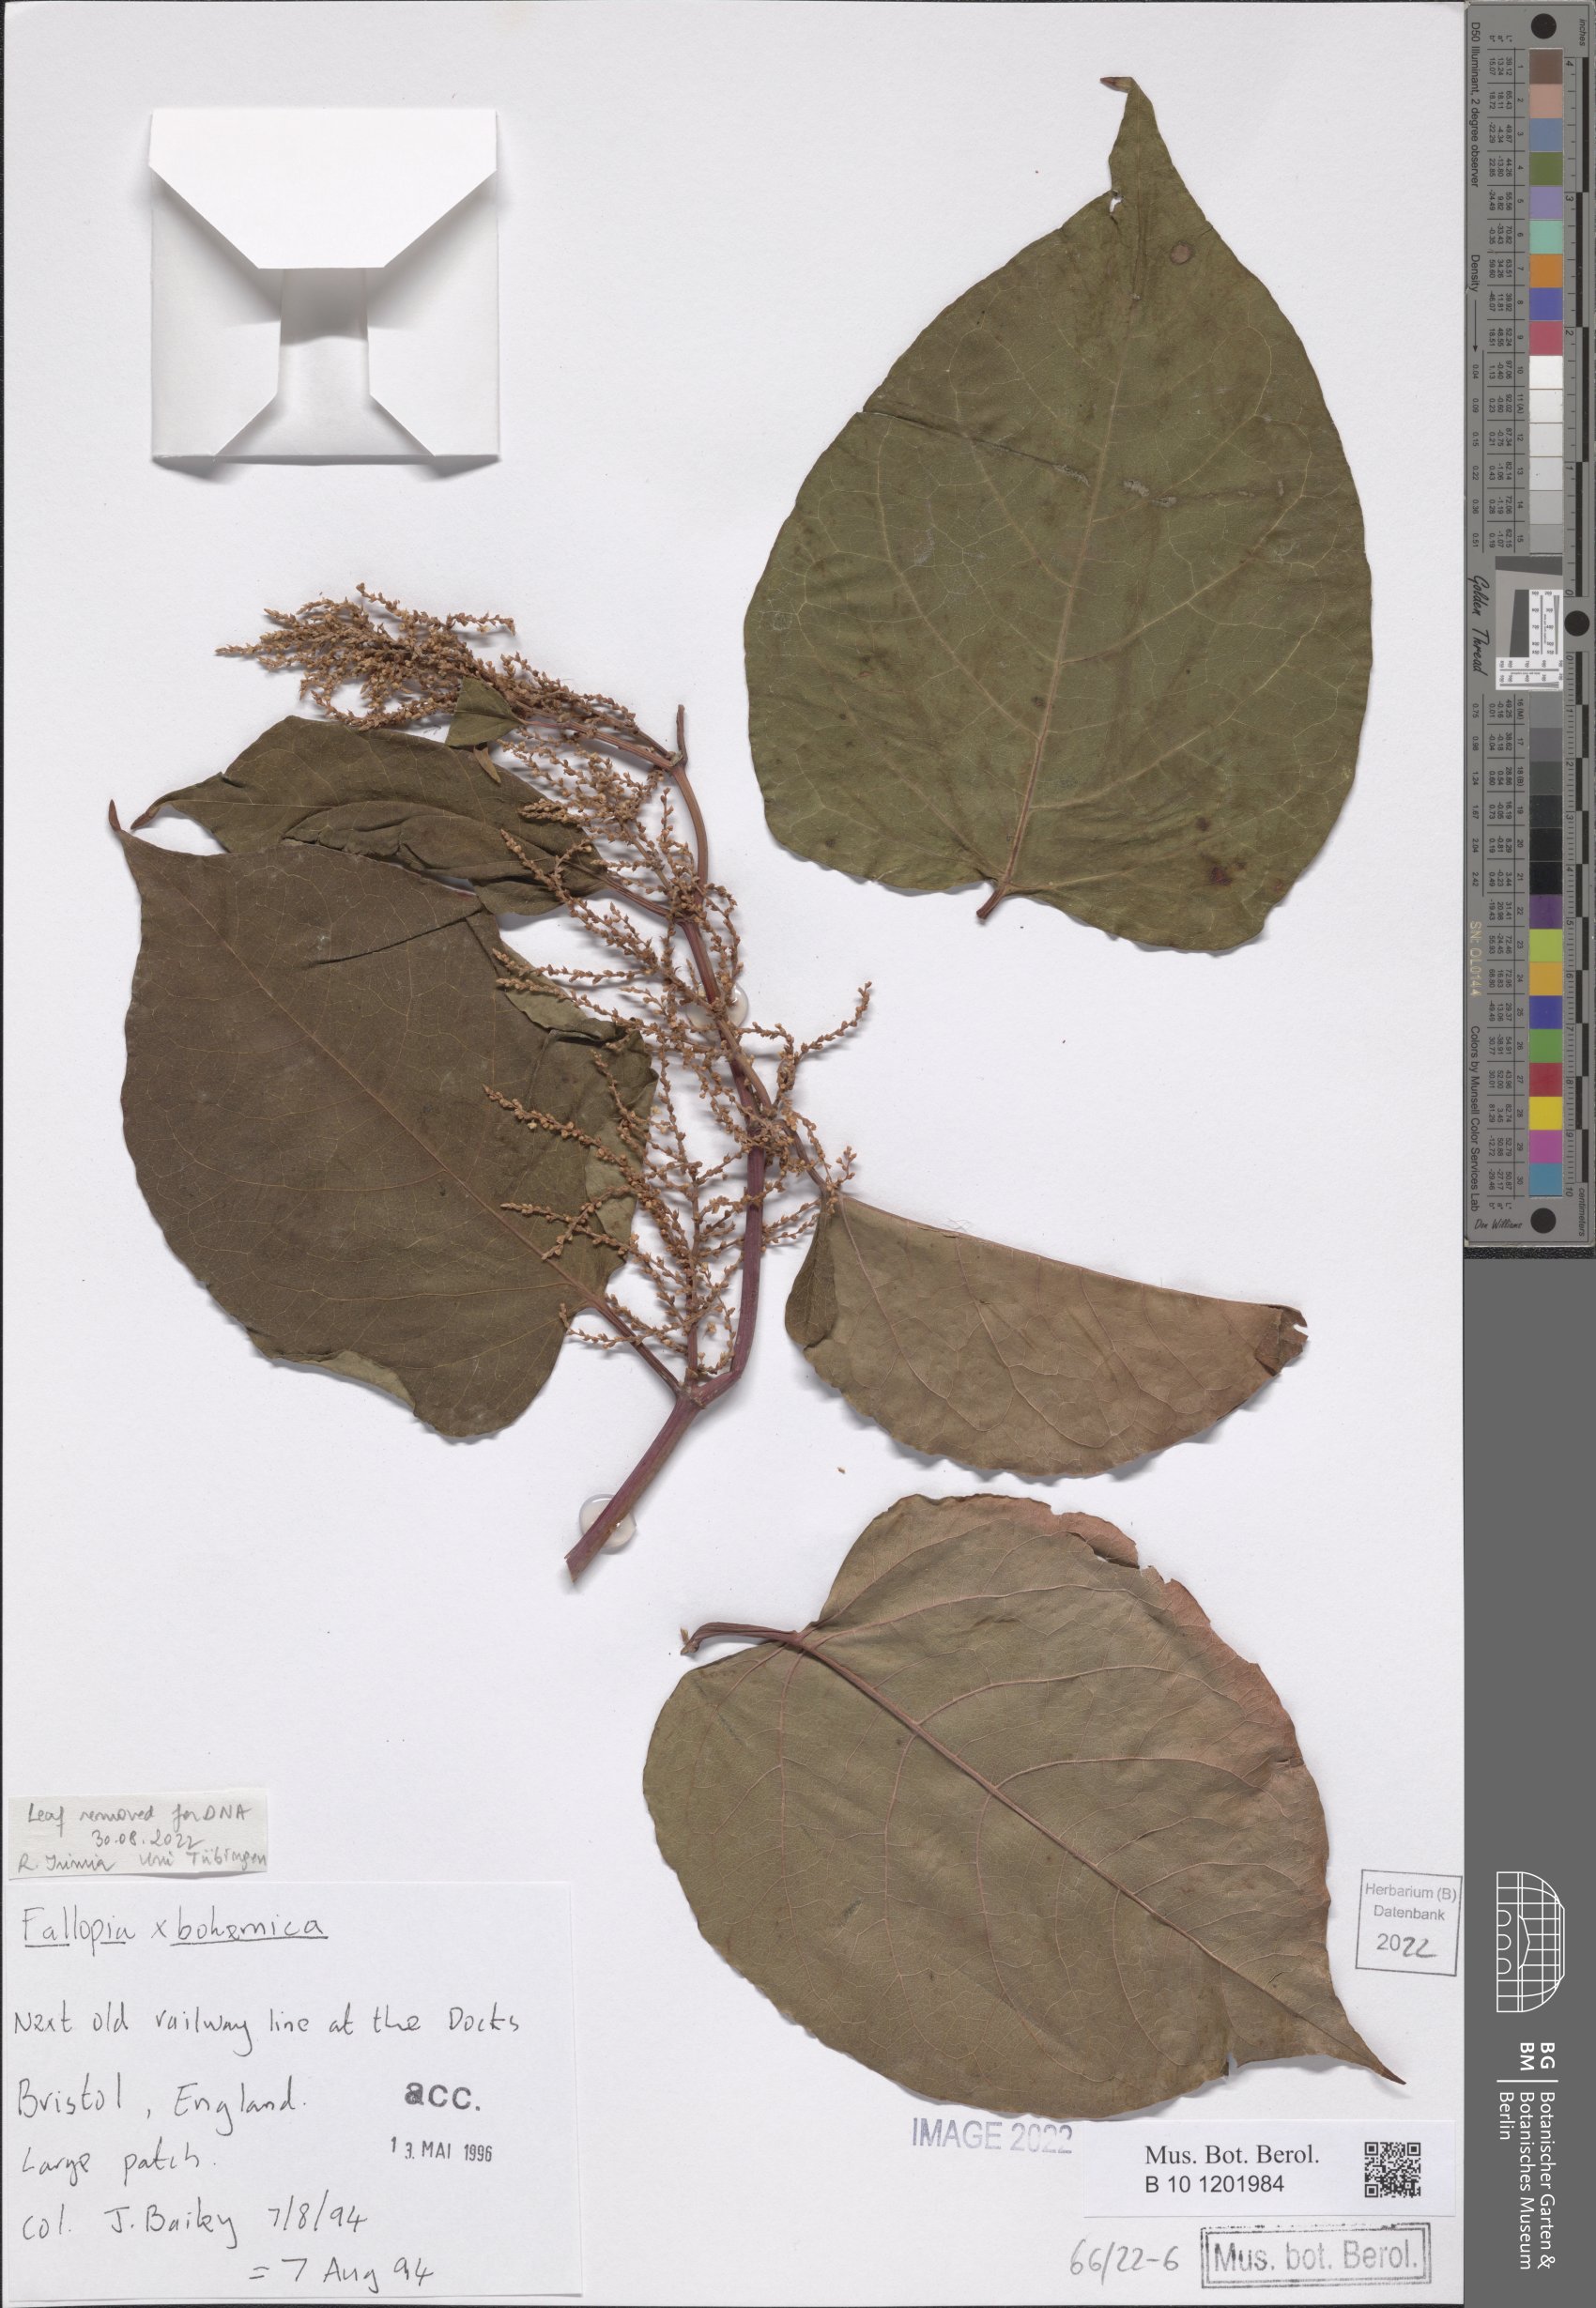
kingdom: Plantae
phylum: Tracheophyta
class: Magnoliopsida
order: Caryophyllales
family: Polygonaceae
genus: Reynoutria
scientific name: Reynoutria bohemica
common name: Bohemian knotweed
